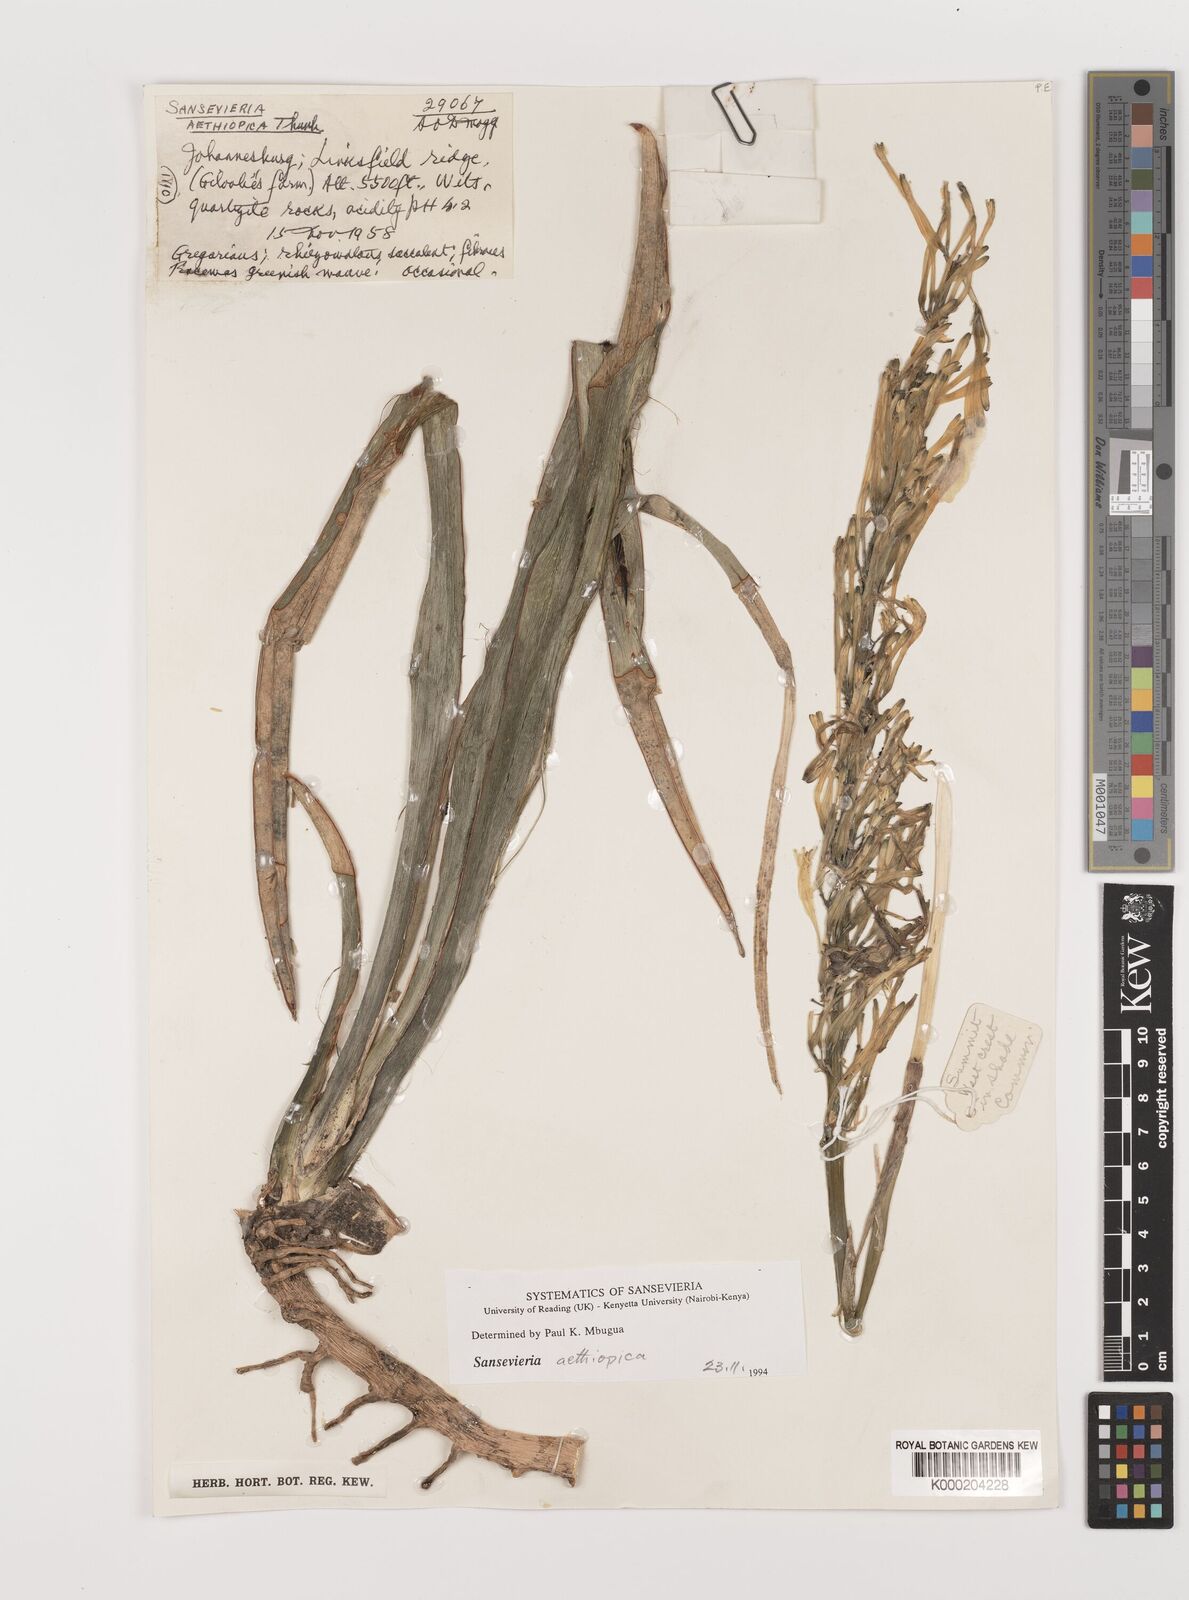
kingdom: Plantae
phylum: Tracheophyta
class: Liliopsida
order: Asparagales
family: Asparagaceae
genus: Dracaena
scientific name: Dracaena aethiopica
